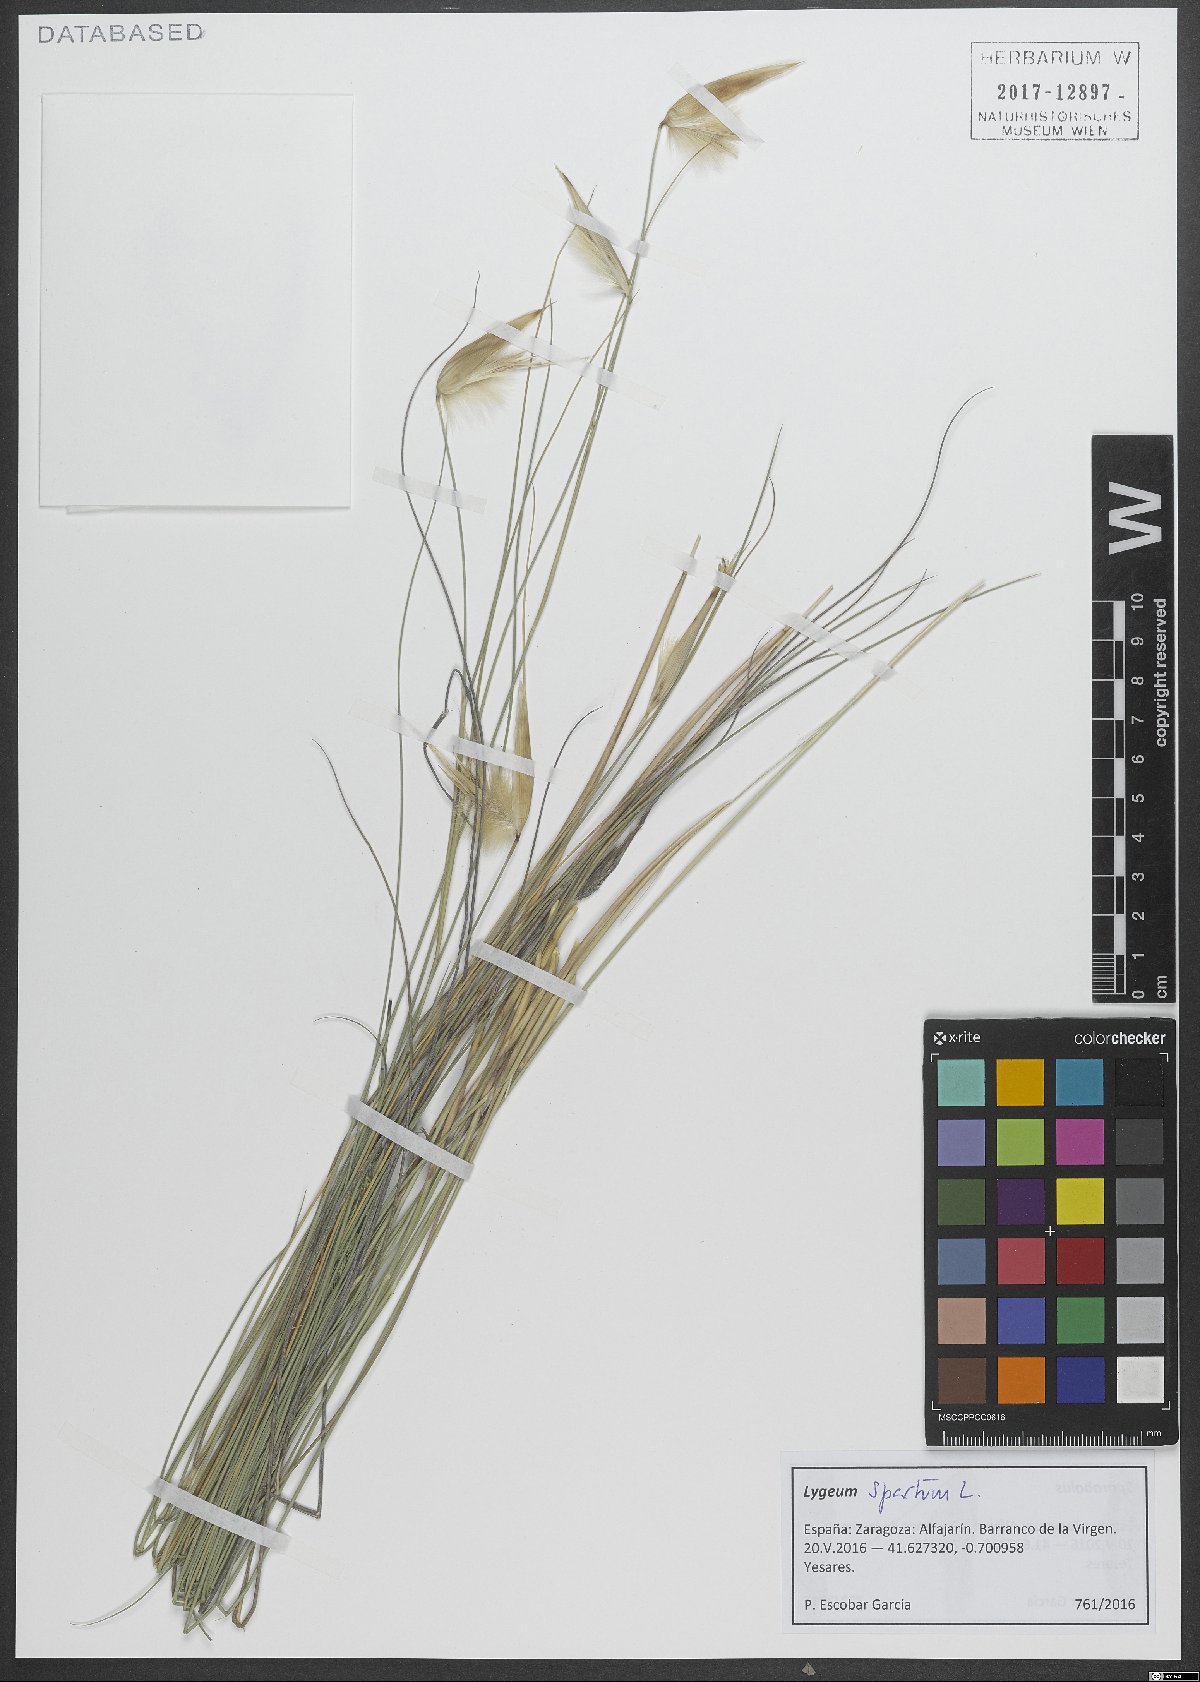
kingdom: Plantae
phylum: Tracheophyta
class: Liliopsida
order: Poales
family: Poaceae
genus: Lygeum
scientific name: Lygeum spartum
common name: Albardine
